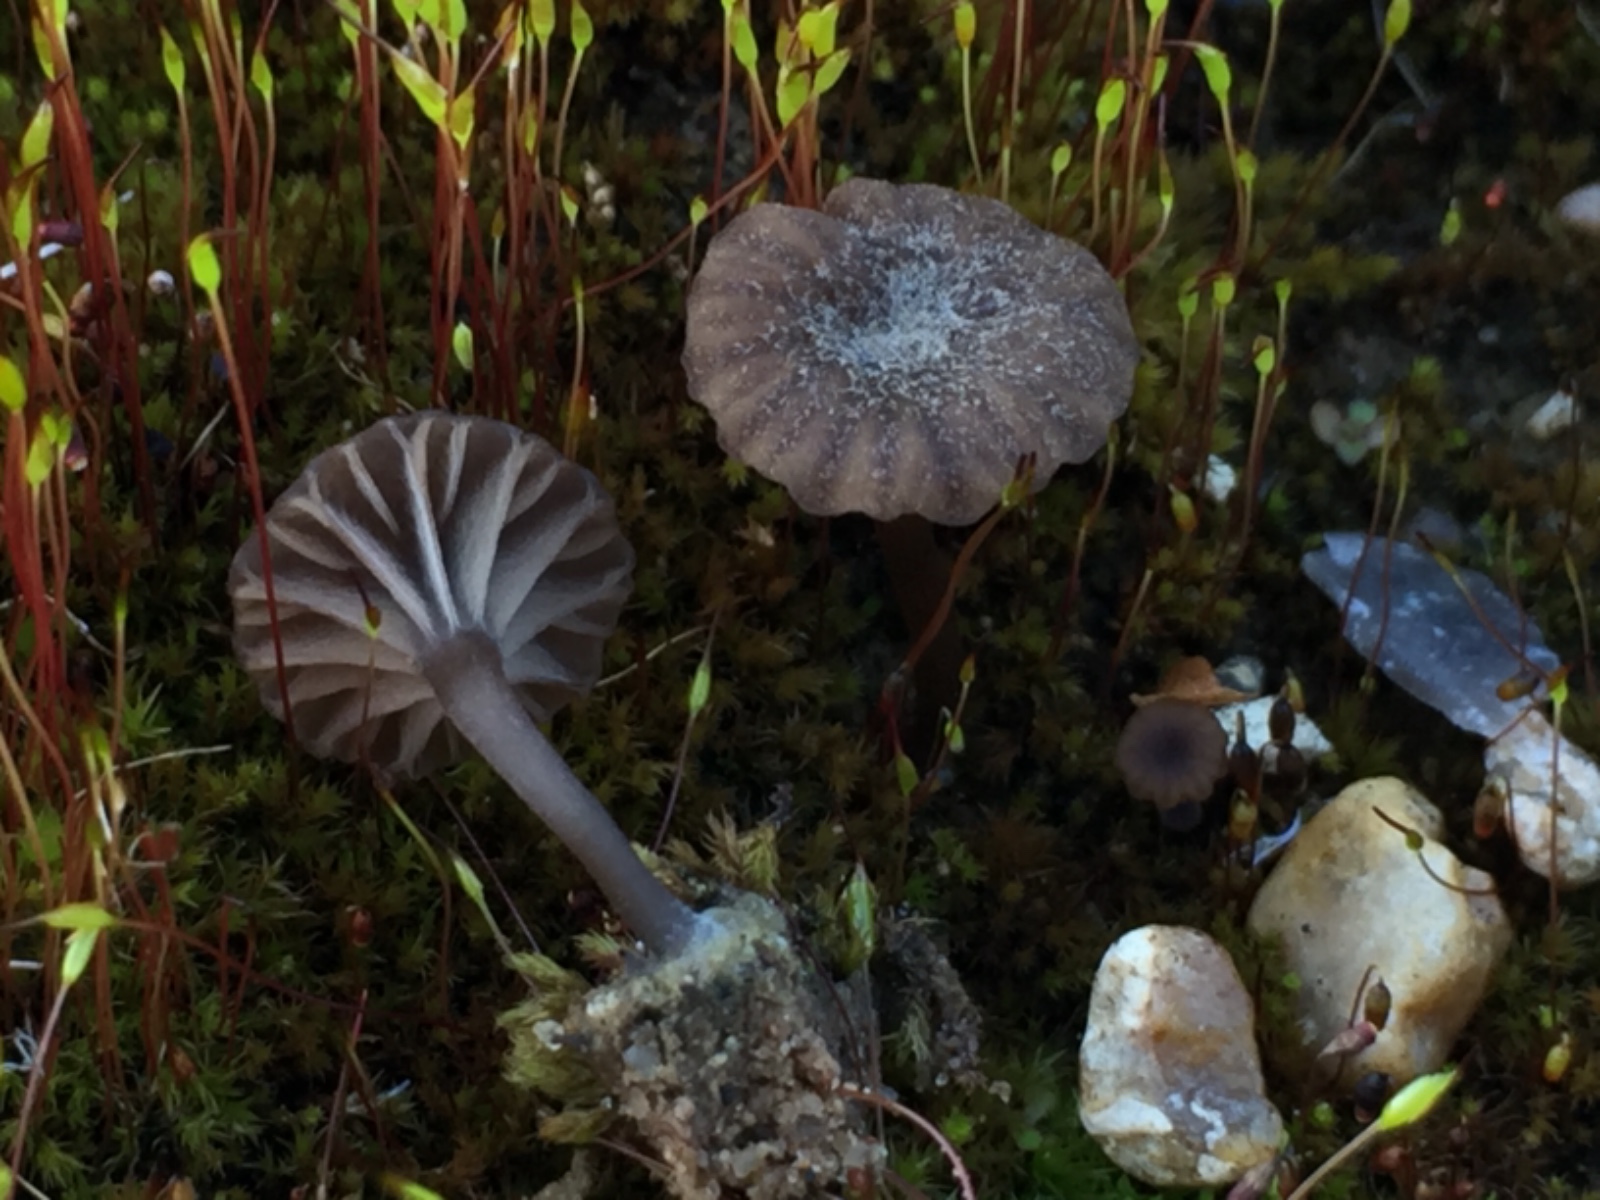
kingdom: Fungi
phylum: Basidiomycota
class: Agaricomycetes
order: Agaricales
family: Hygrophoraceae
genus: Arrhenia
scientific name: Arrhenia
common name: fontænehat
